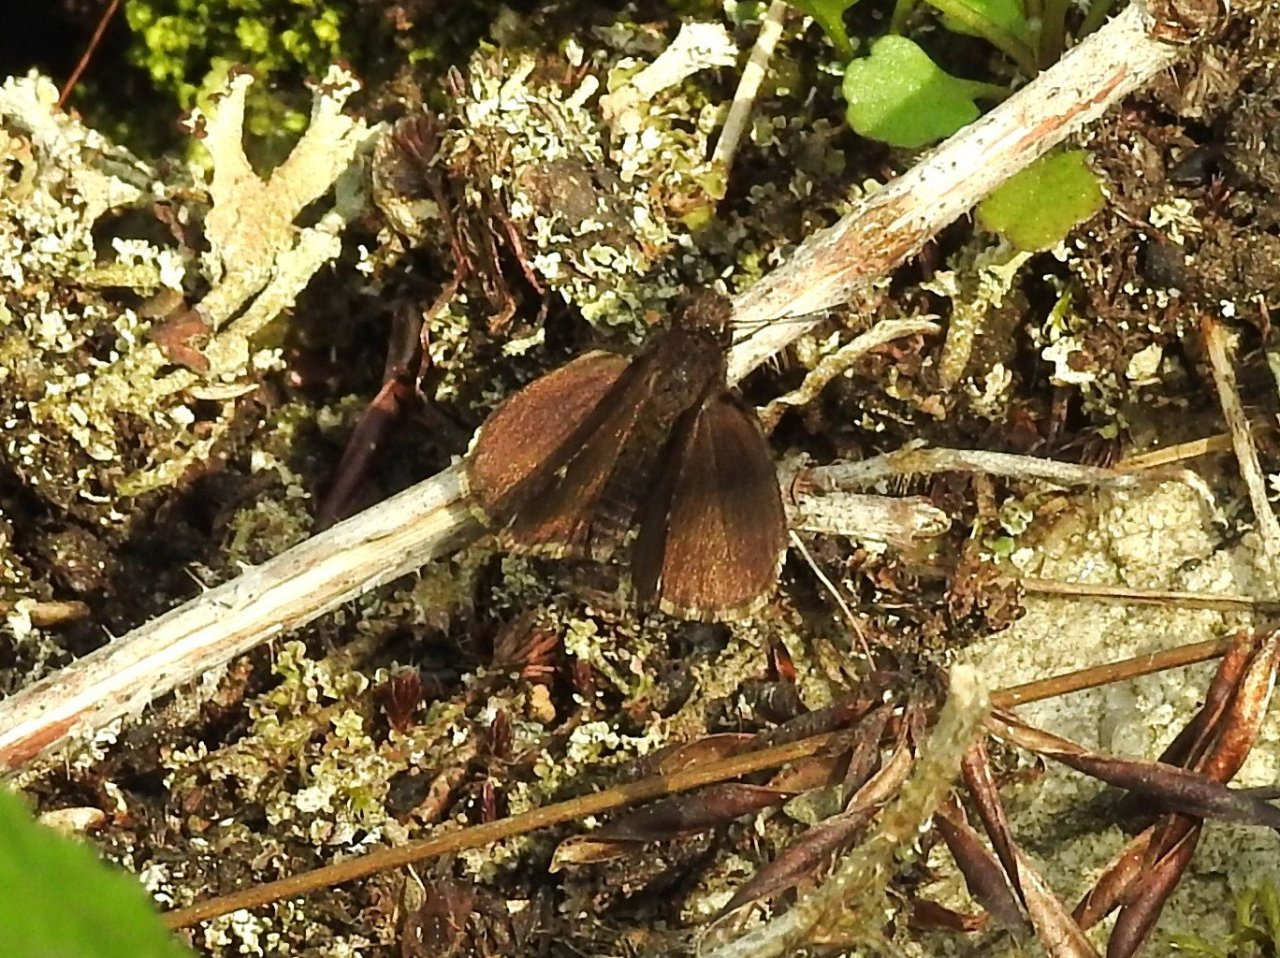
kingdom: Animalia
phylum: Arthropoda
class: Insecta
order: Lepidoptera
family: Hesperiidae
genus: Mastor
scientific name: Mastor vialis
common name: Common Roadside-Skipper
